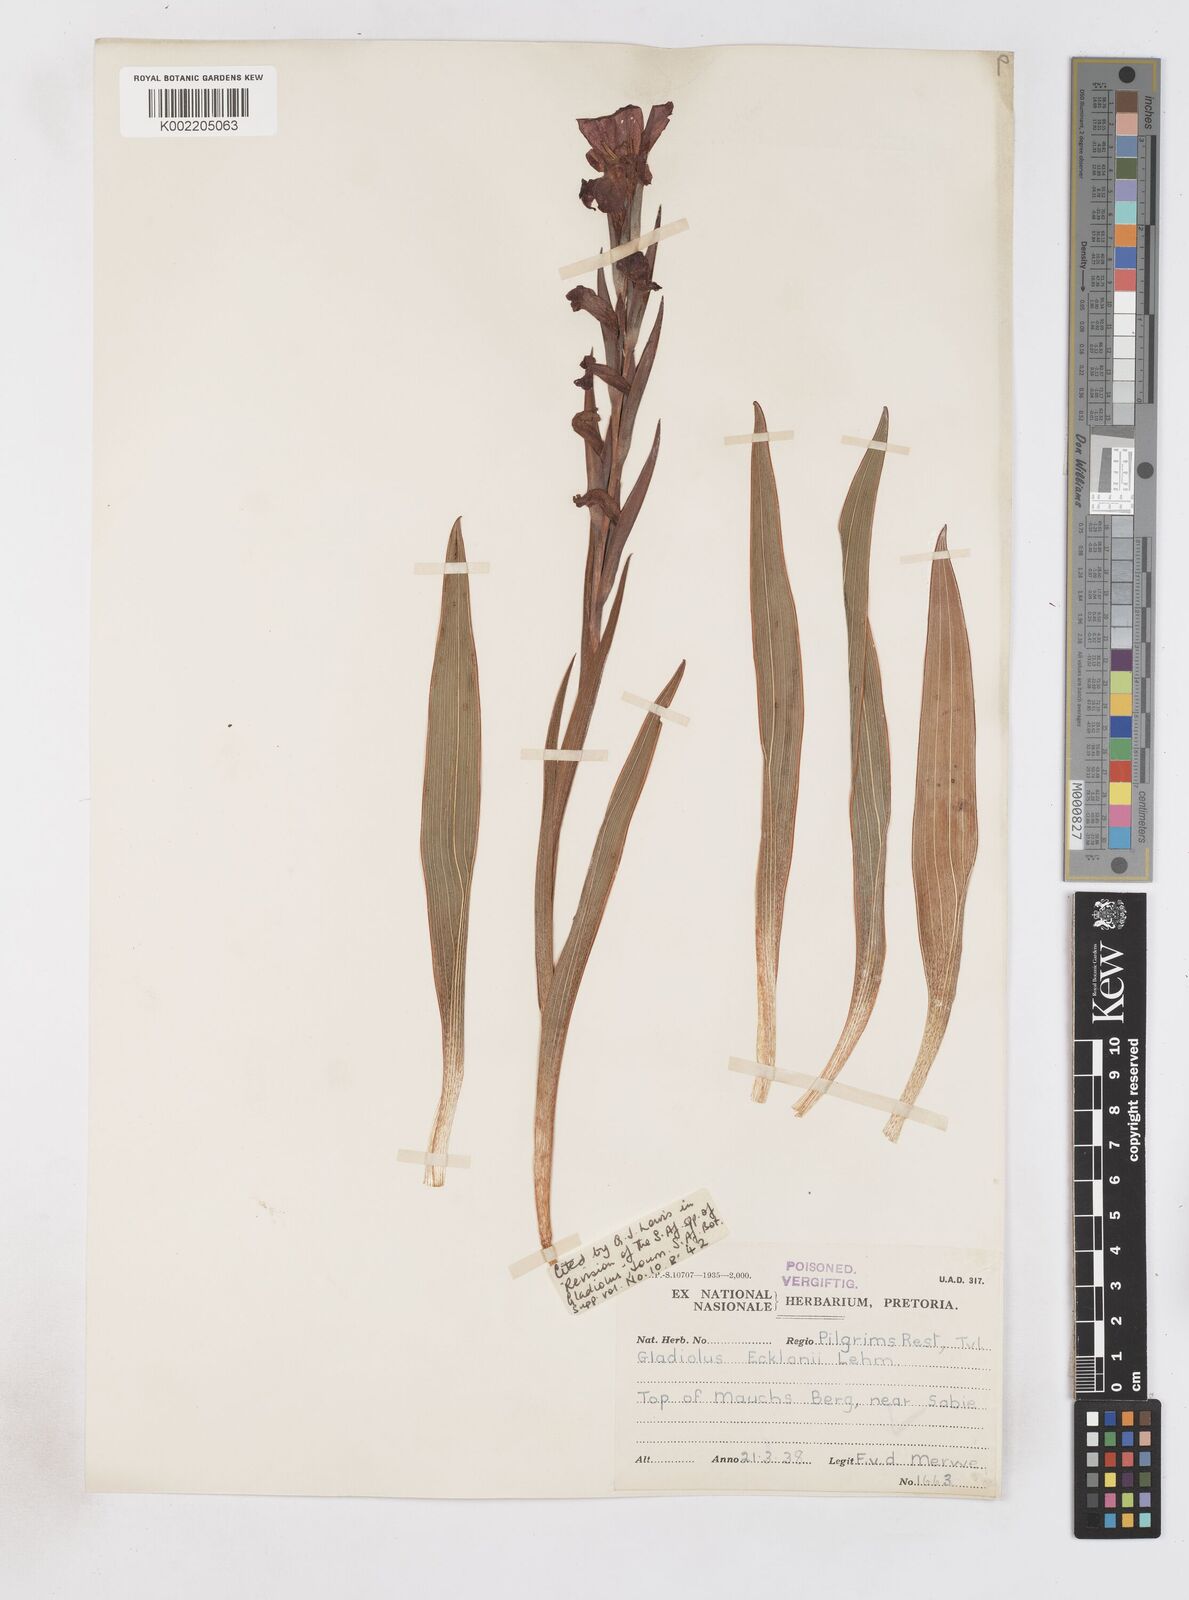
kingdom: Plantae
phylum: Tracheophyta
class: Liliopsida
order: Asparagales
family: Iridaceae
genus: Gladiolus
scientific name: Gladiolus ecklonii
